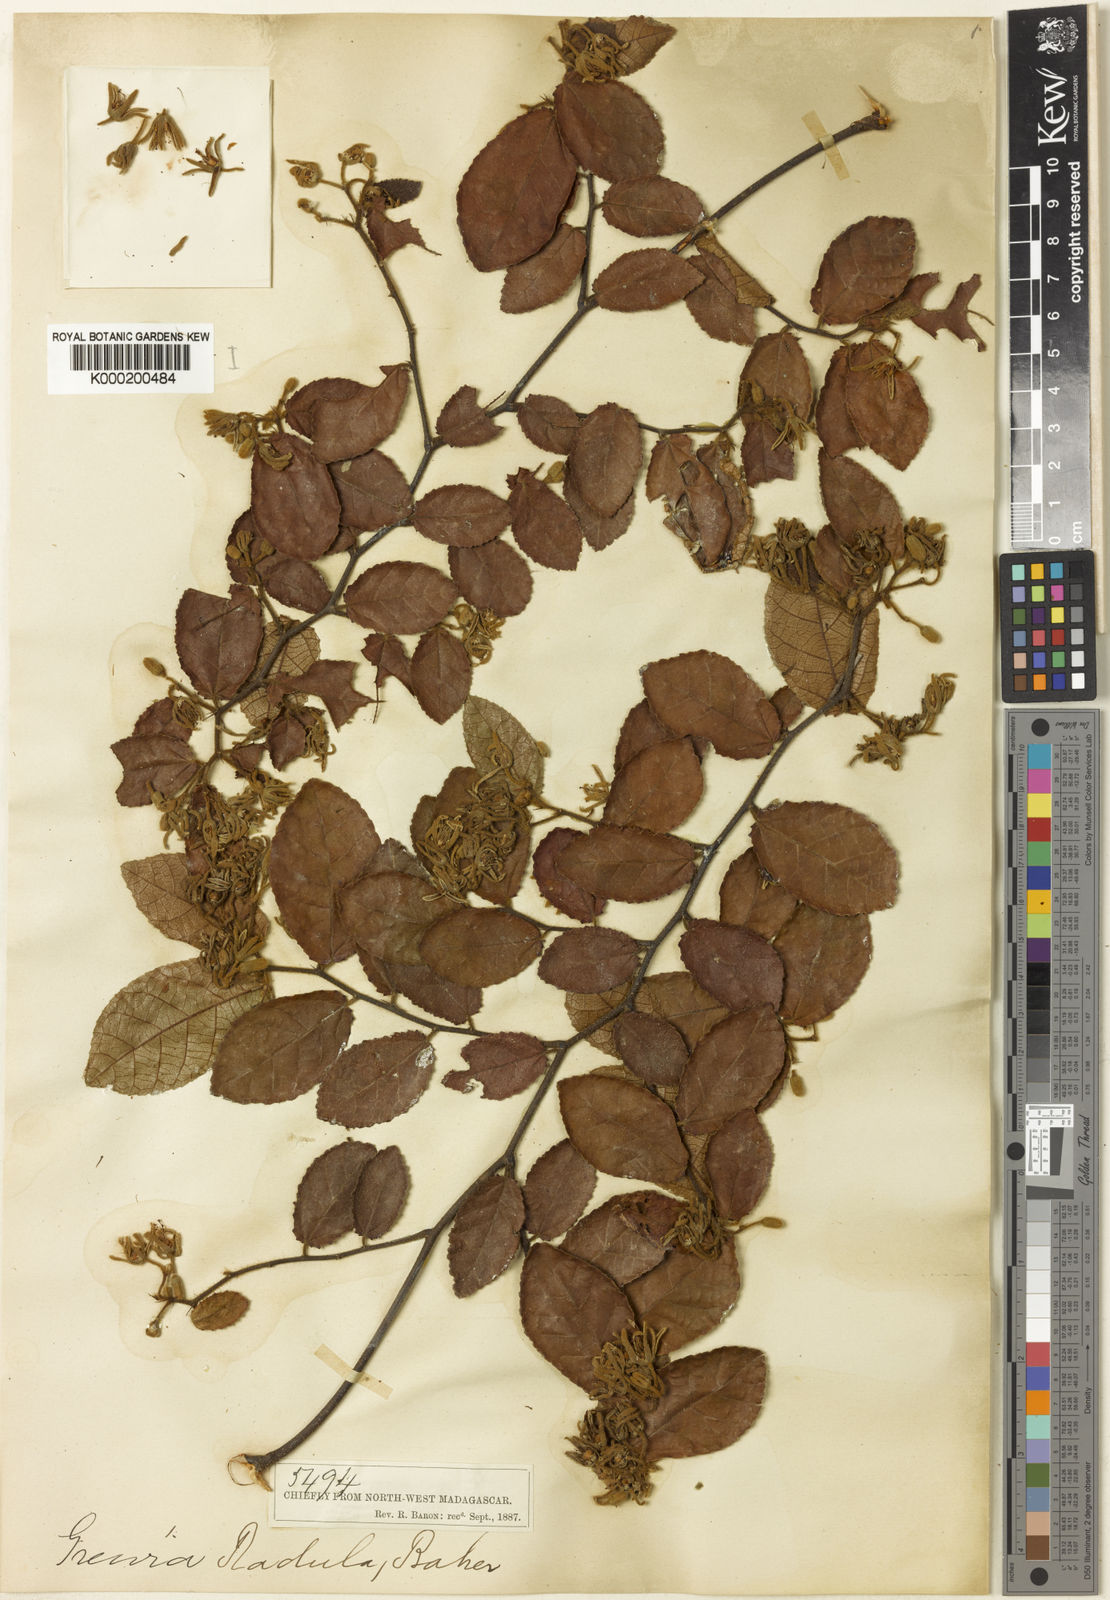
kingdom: Plantae
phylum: Tracheophyta
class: Magnoliopsida
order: Malvales
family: Malvaceae
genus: Grewia
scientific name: Grewia radula
